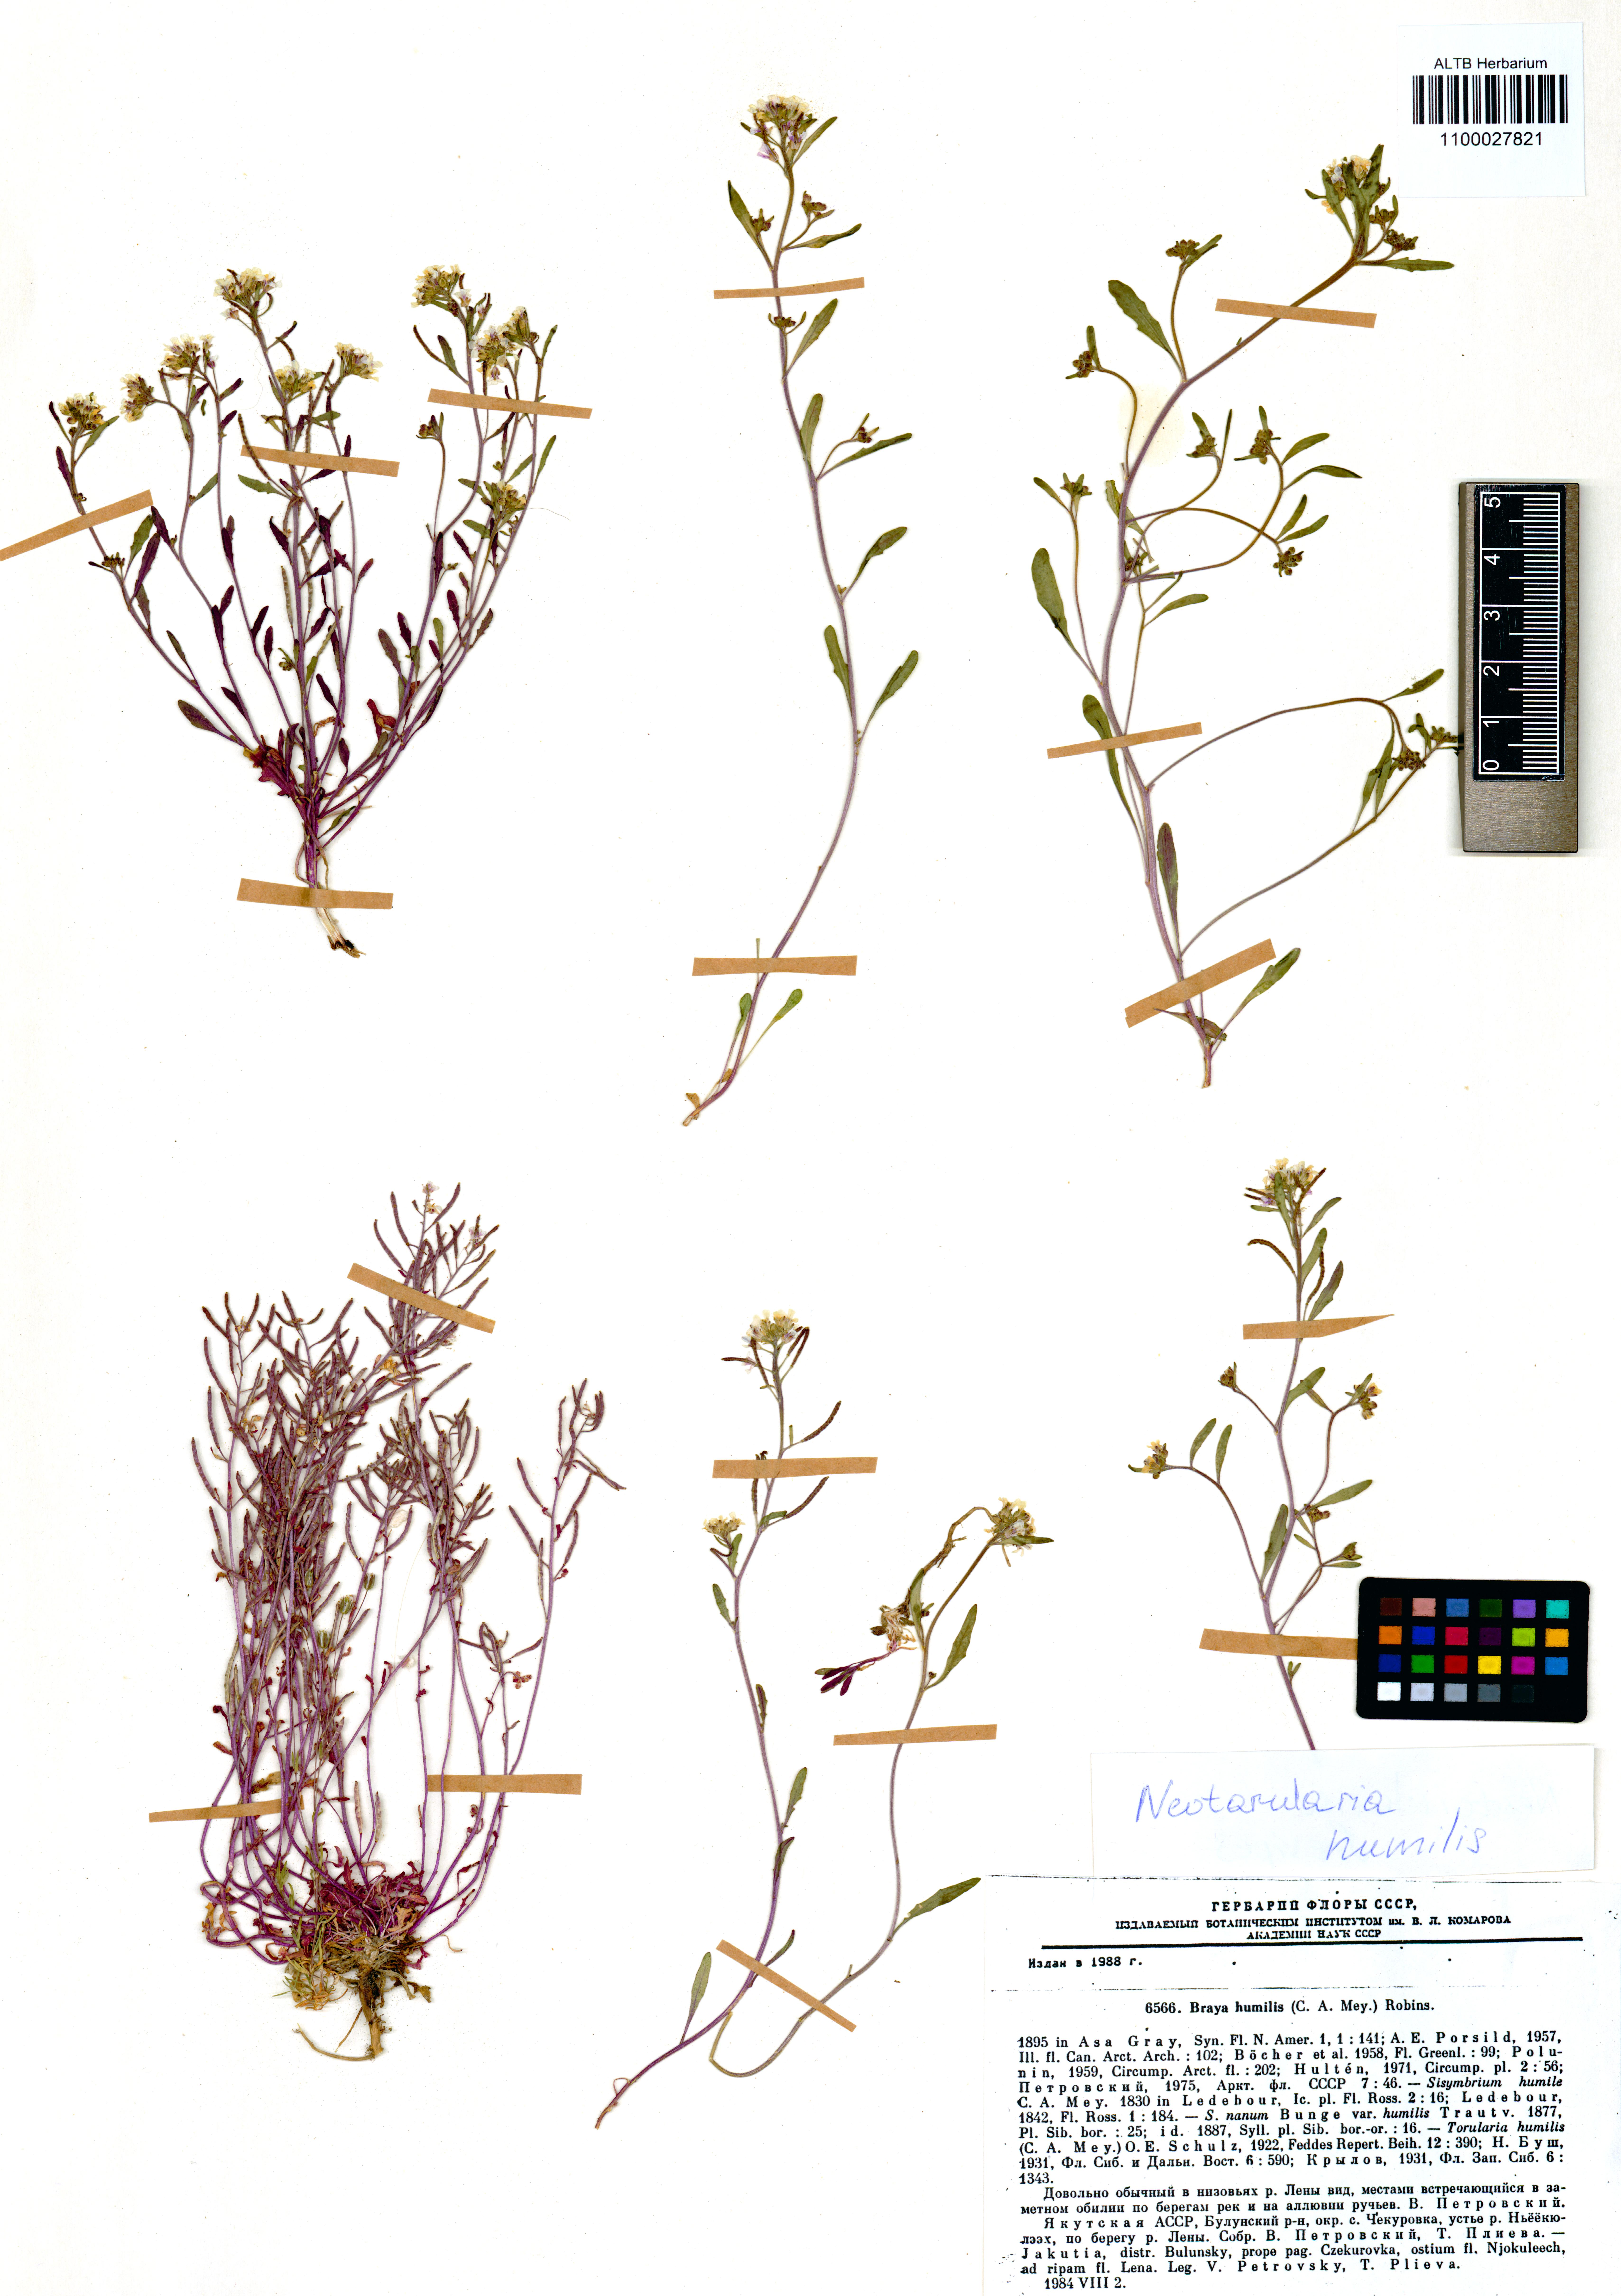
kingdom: Plantae
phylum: Tracheophyta
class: Magnoliopsida
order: Brassicales
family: Brassicaceae
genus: Braya
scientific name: Braya humilis
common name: Alpine northern rockcress
